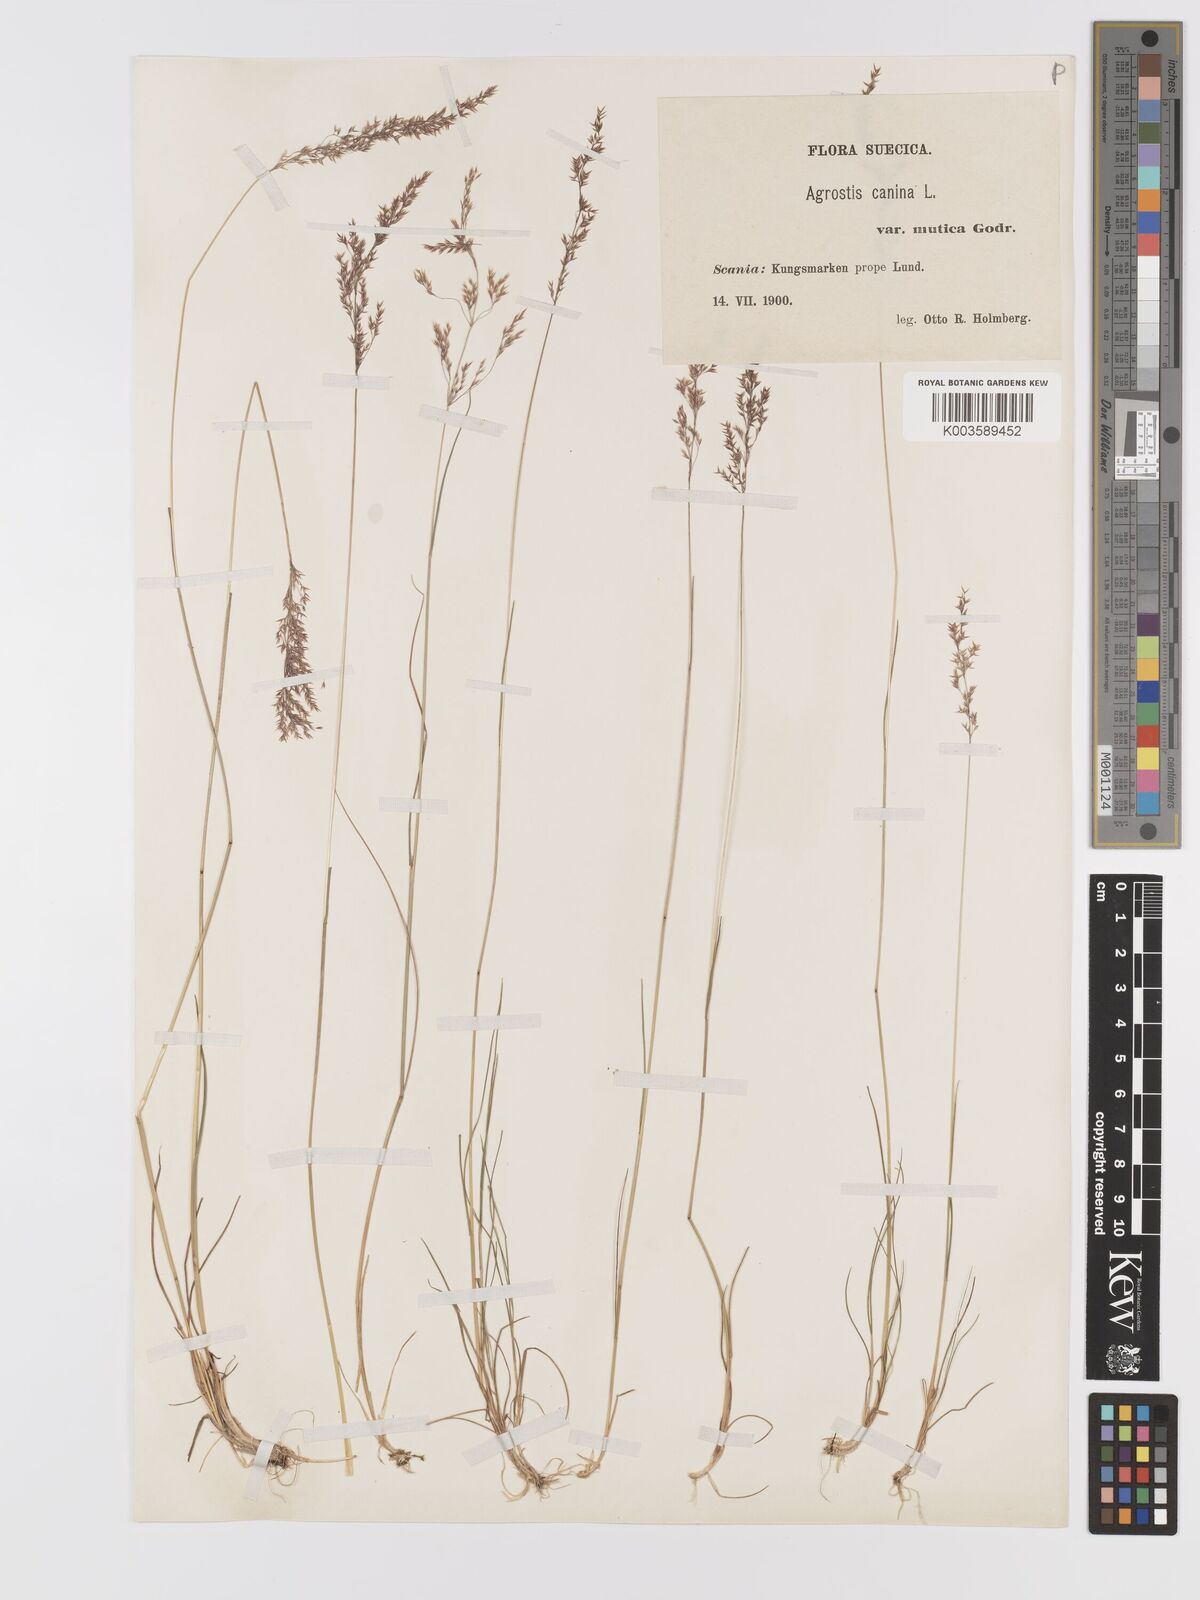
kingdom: Plantae
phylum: Tracheophyta
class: Liliopsida
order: Poales
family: Poaceae
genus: Agrostis
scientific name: Agrostis canina
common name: Velvet bent
